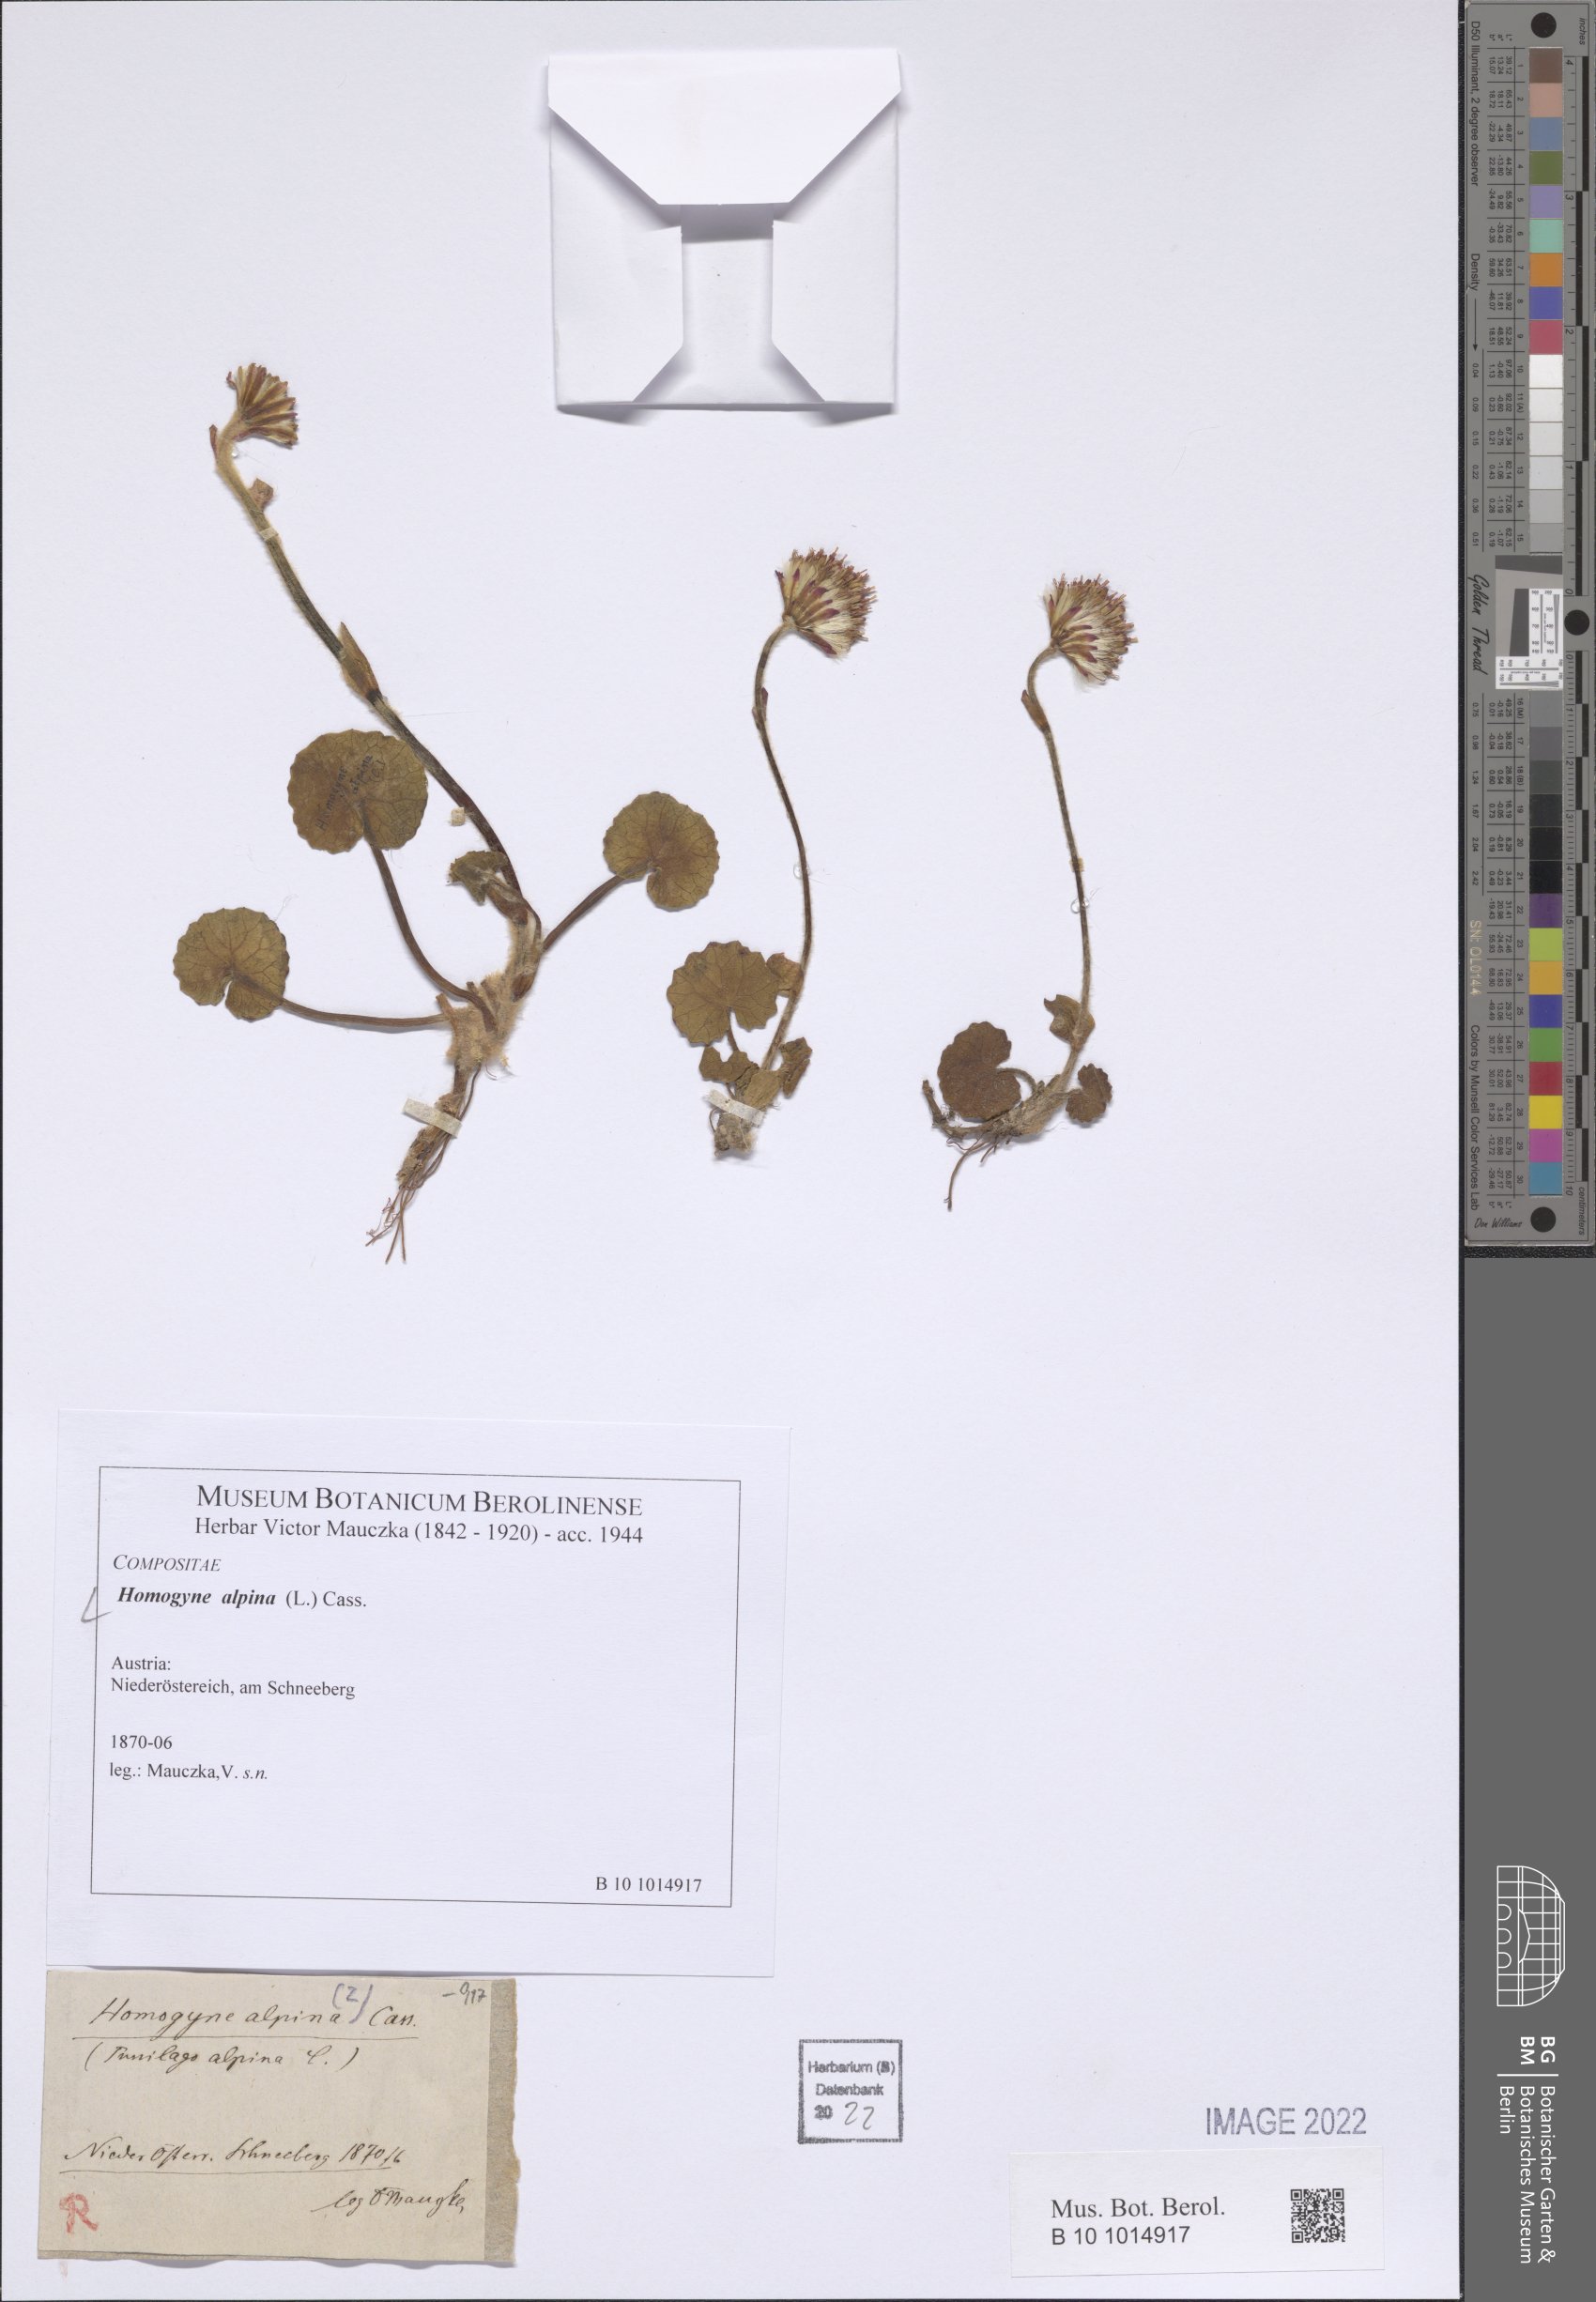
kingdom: Plantae
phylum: Tracheophyta
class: Magnoliopsida
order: Asterales
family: Asteraceae
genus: Homogyne
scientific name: Homogyne alpina
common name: Purple colt's-foot
